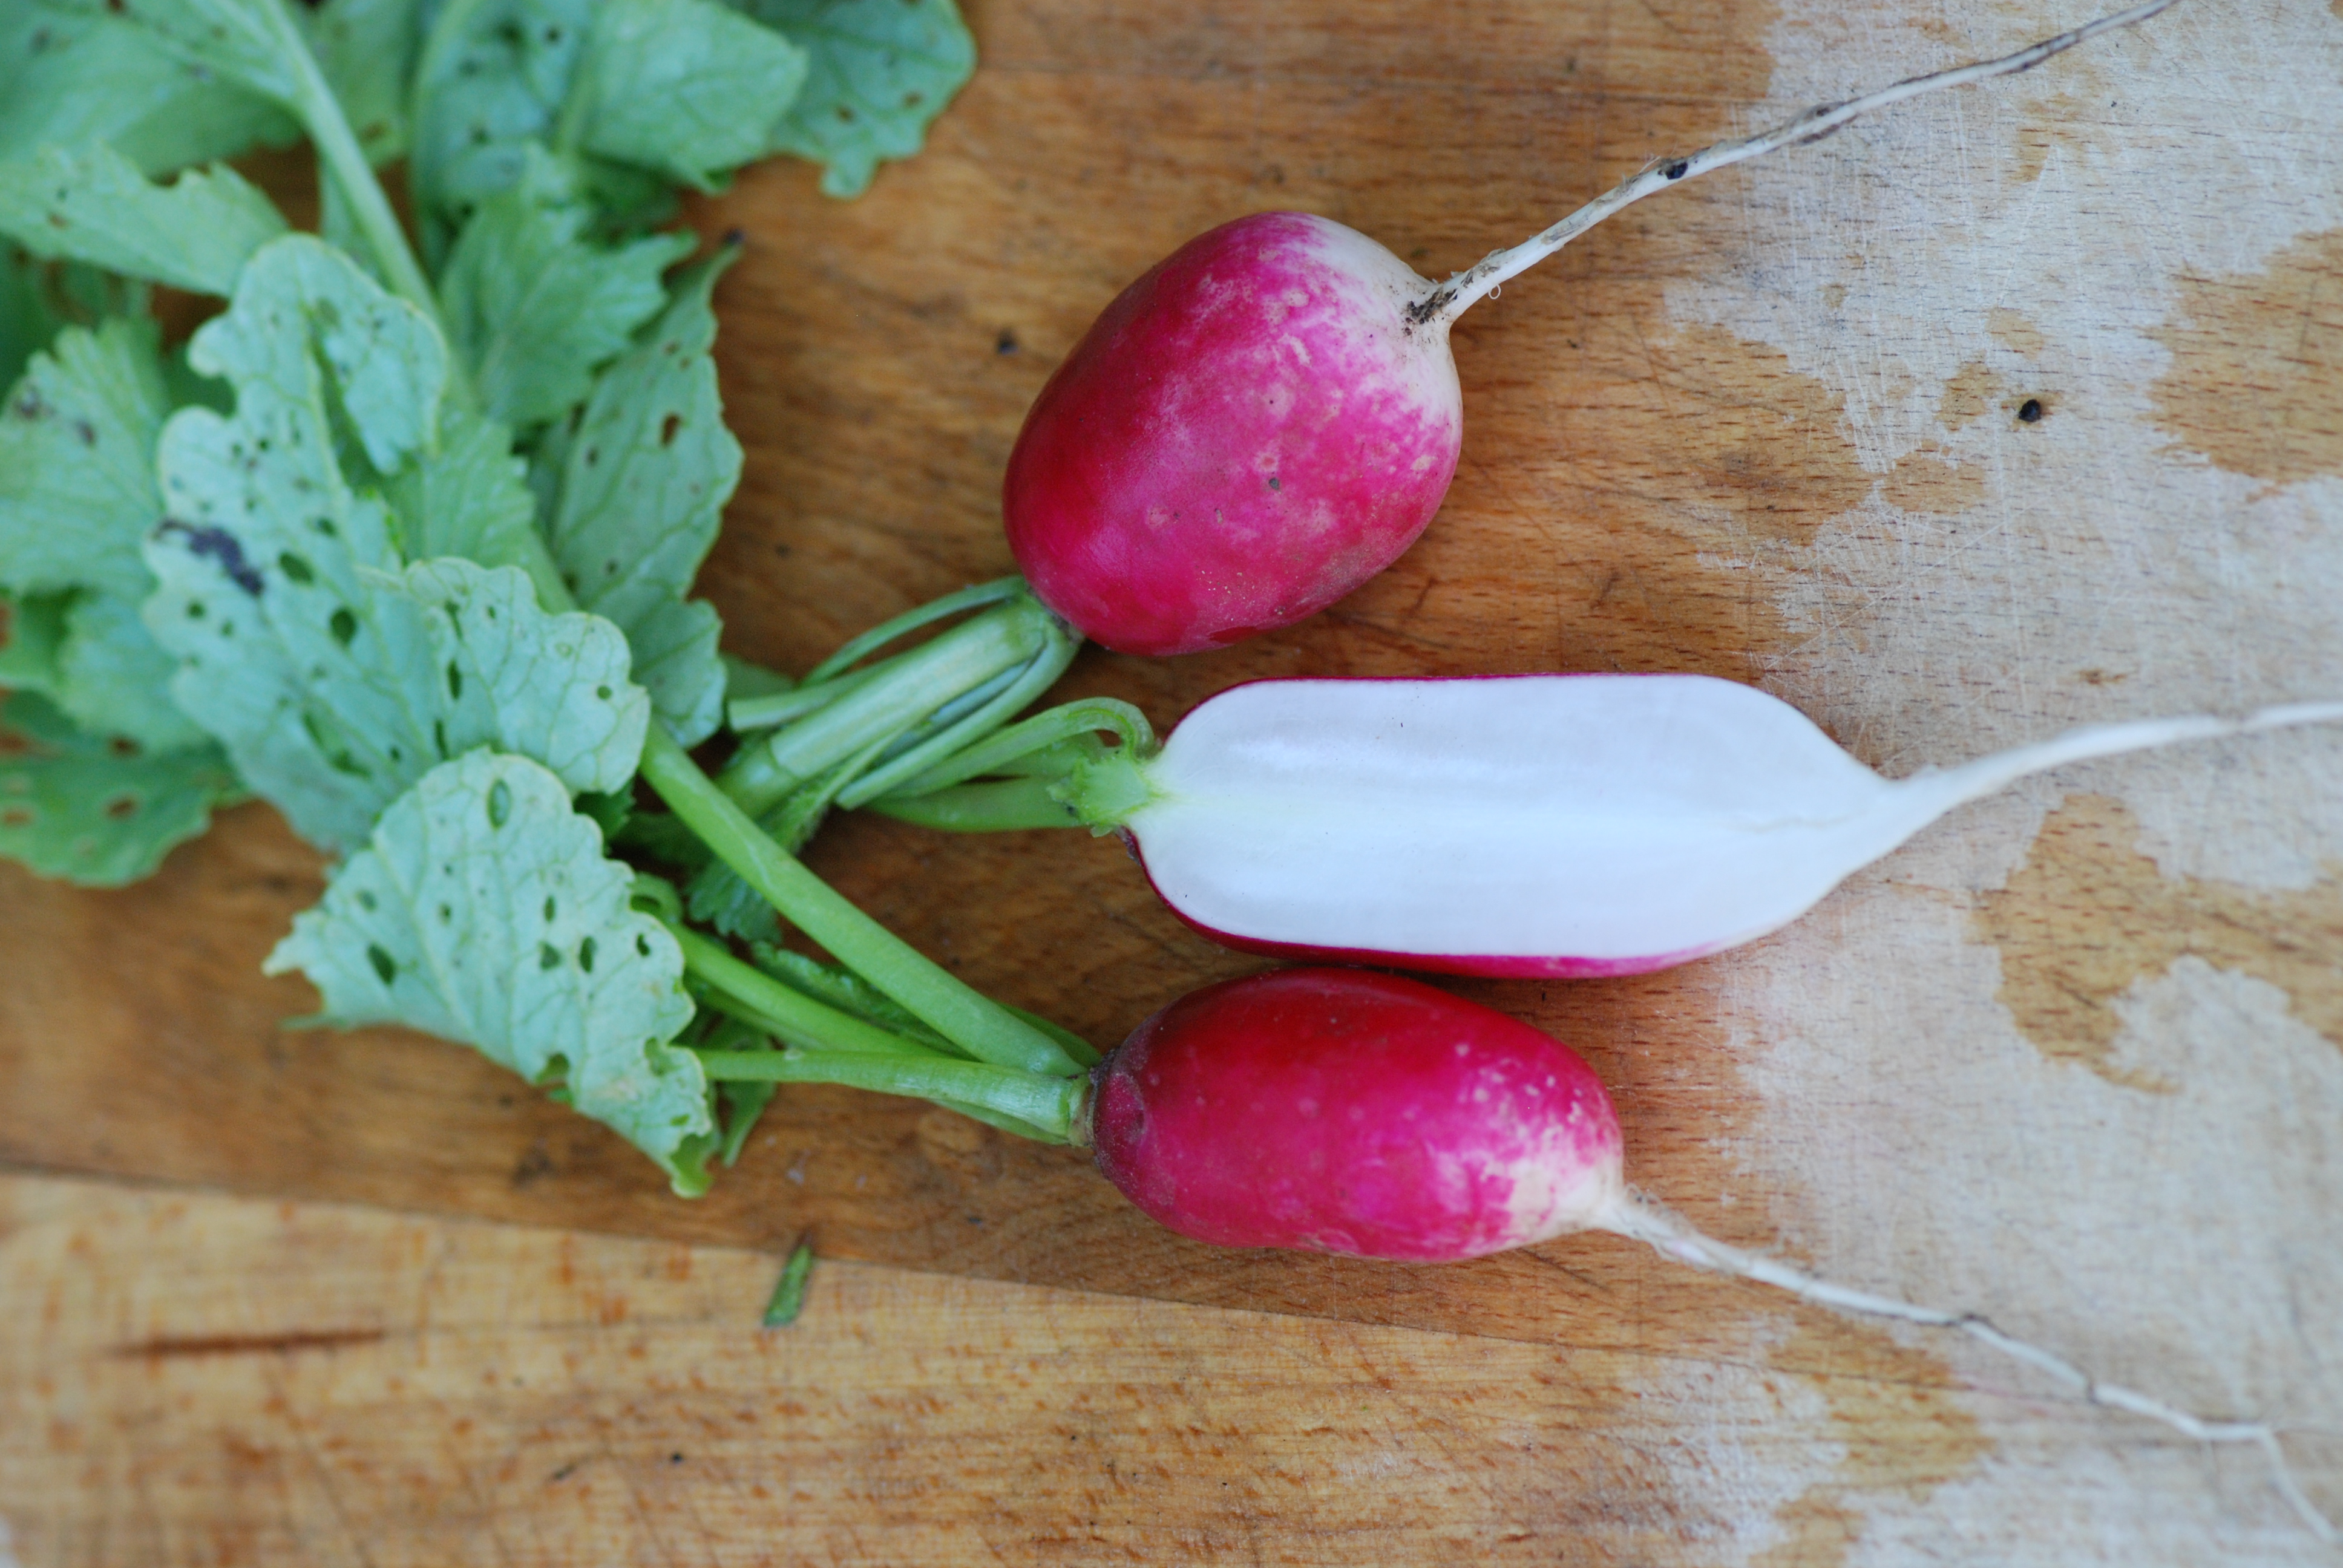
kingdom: Plantae
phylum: Tracheophyta
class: Magnoliopsida
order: Brassicales
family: Brassicaceae
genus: Raphanus
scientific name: Raphanus sativus
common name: Cultivated radish
